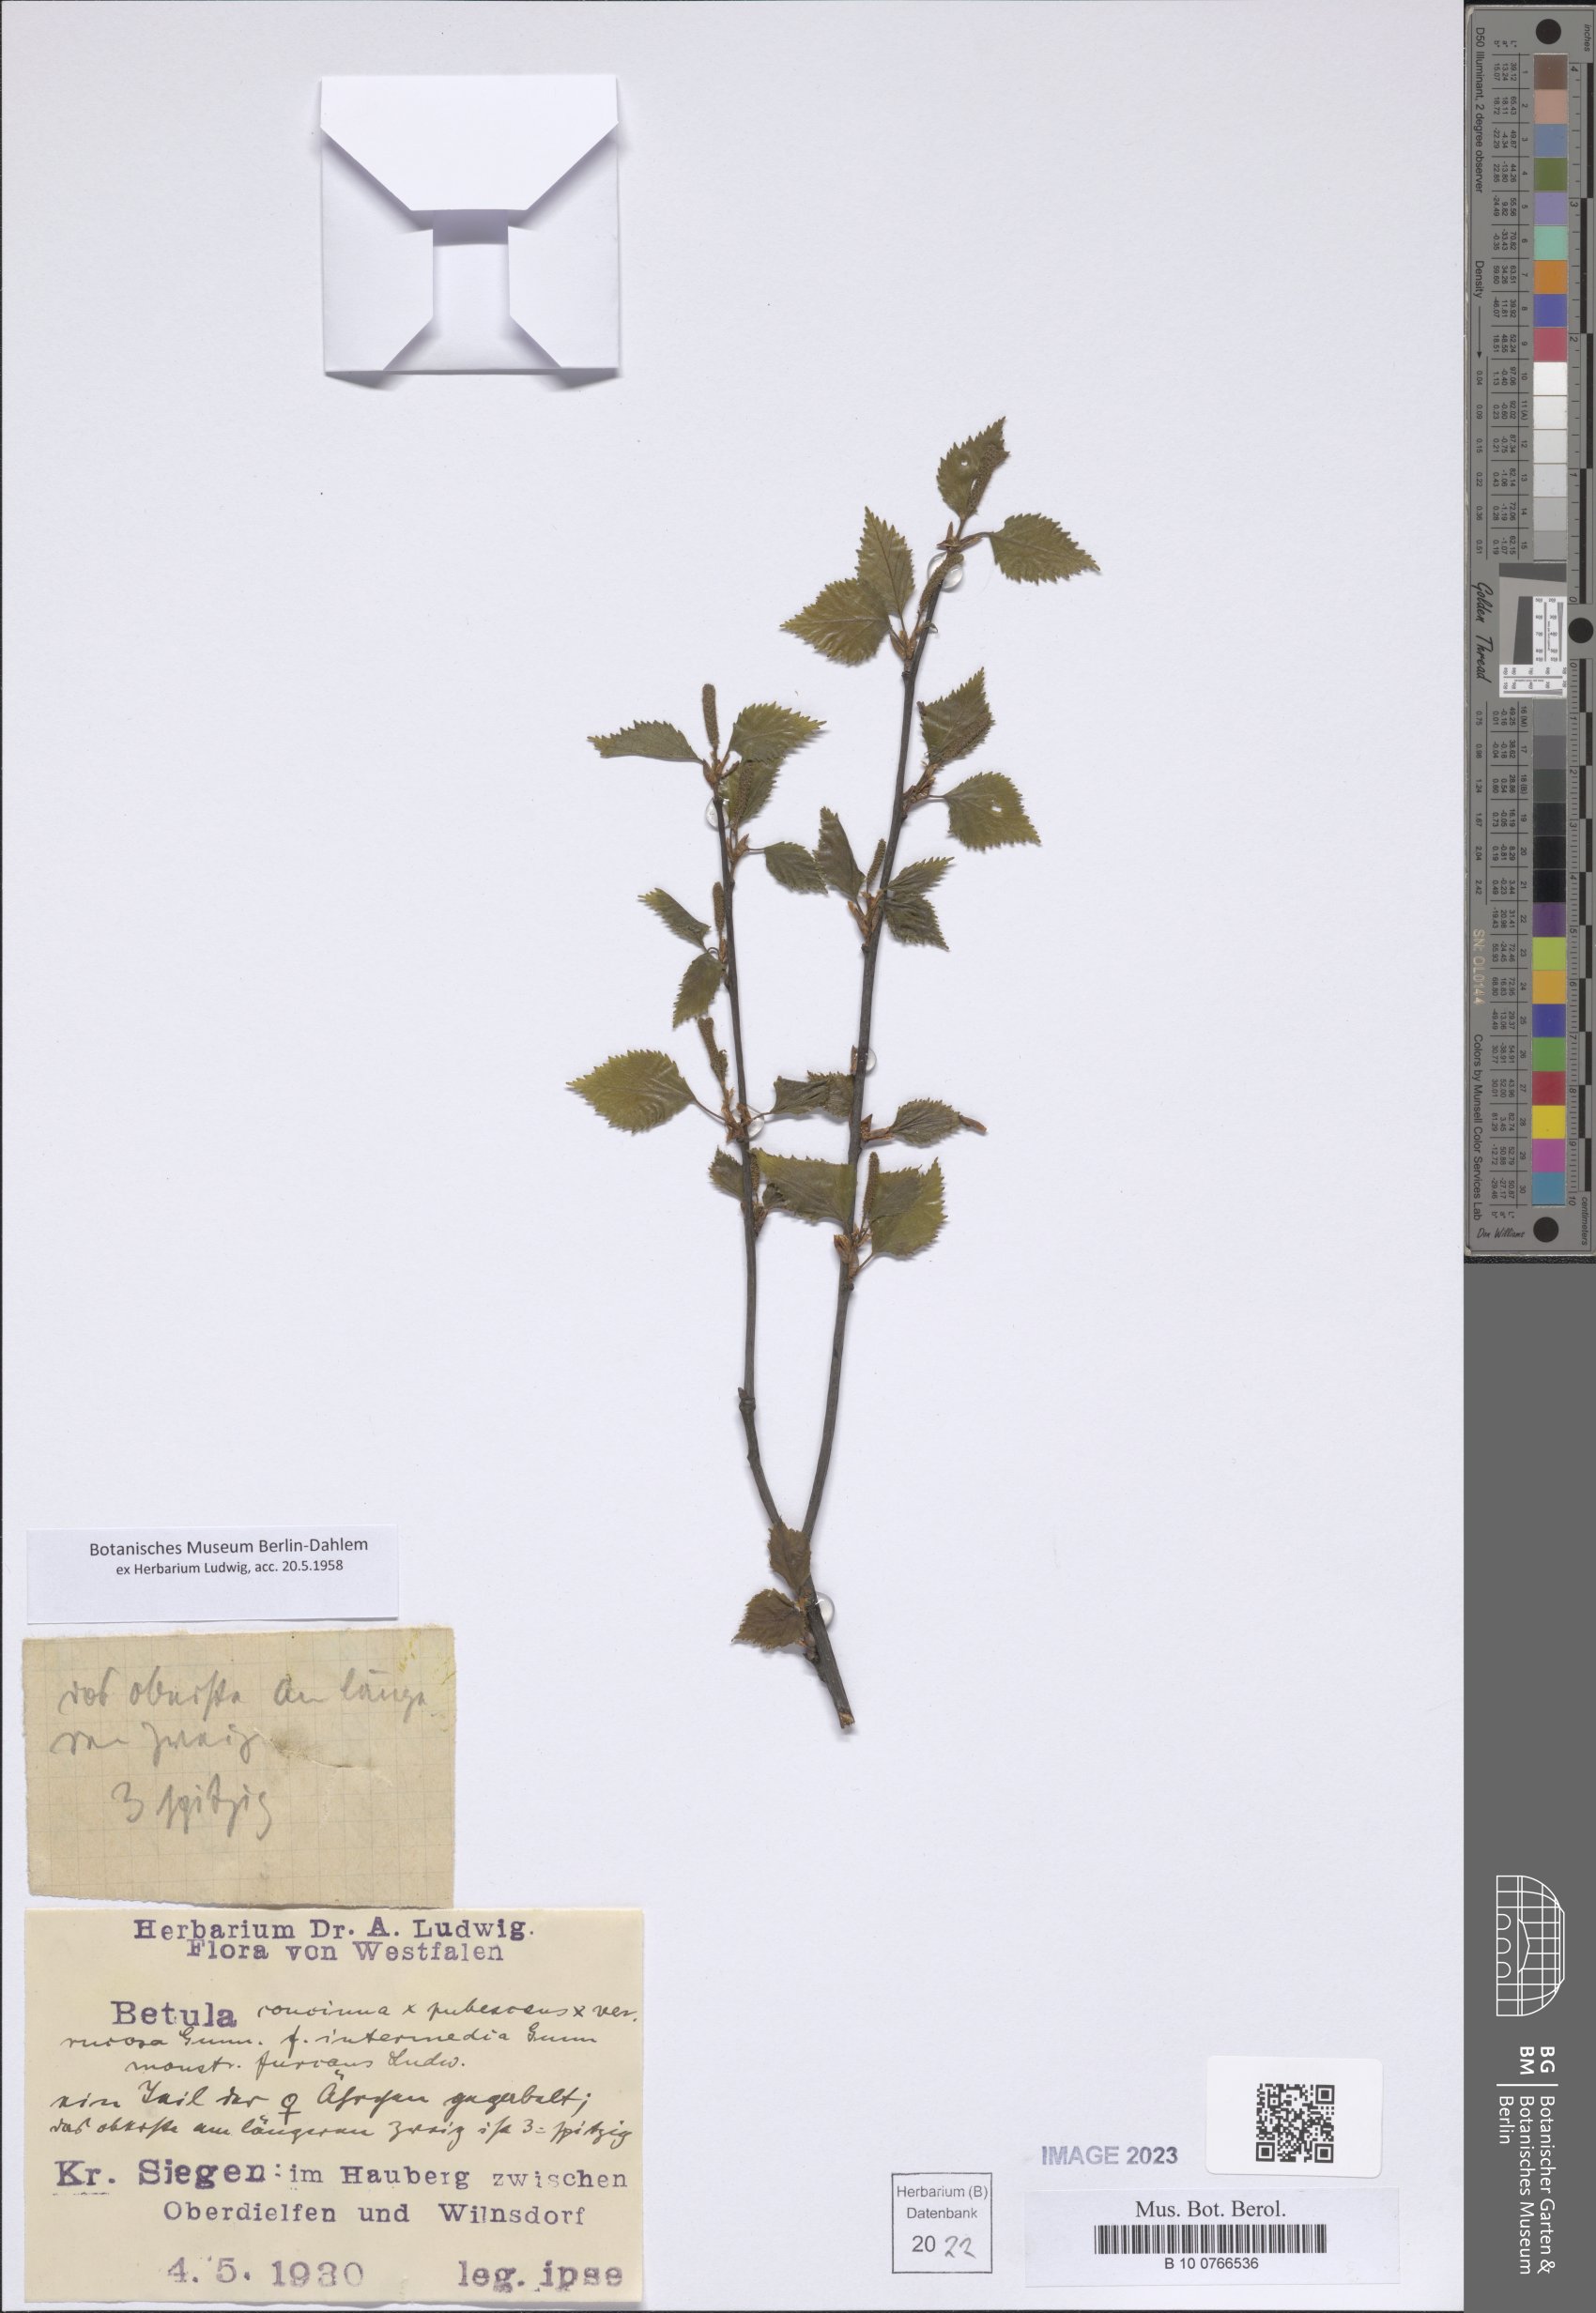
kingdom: Plantae
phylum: Tracheophyta
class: Magnoliopsida
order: Fagales
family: Betulaceae
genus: Betula
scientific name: Betula
